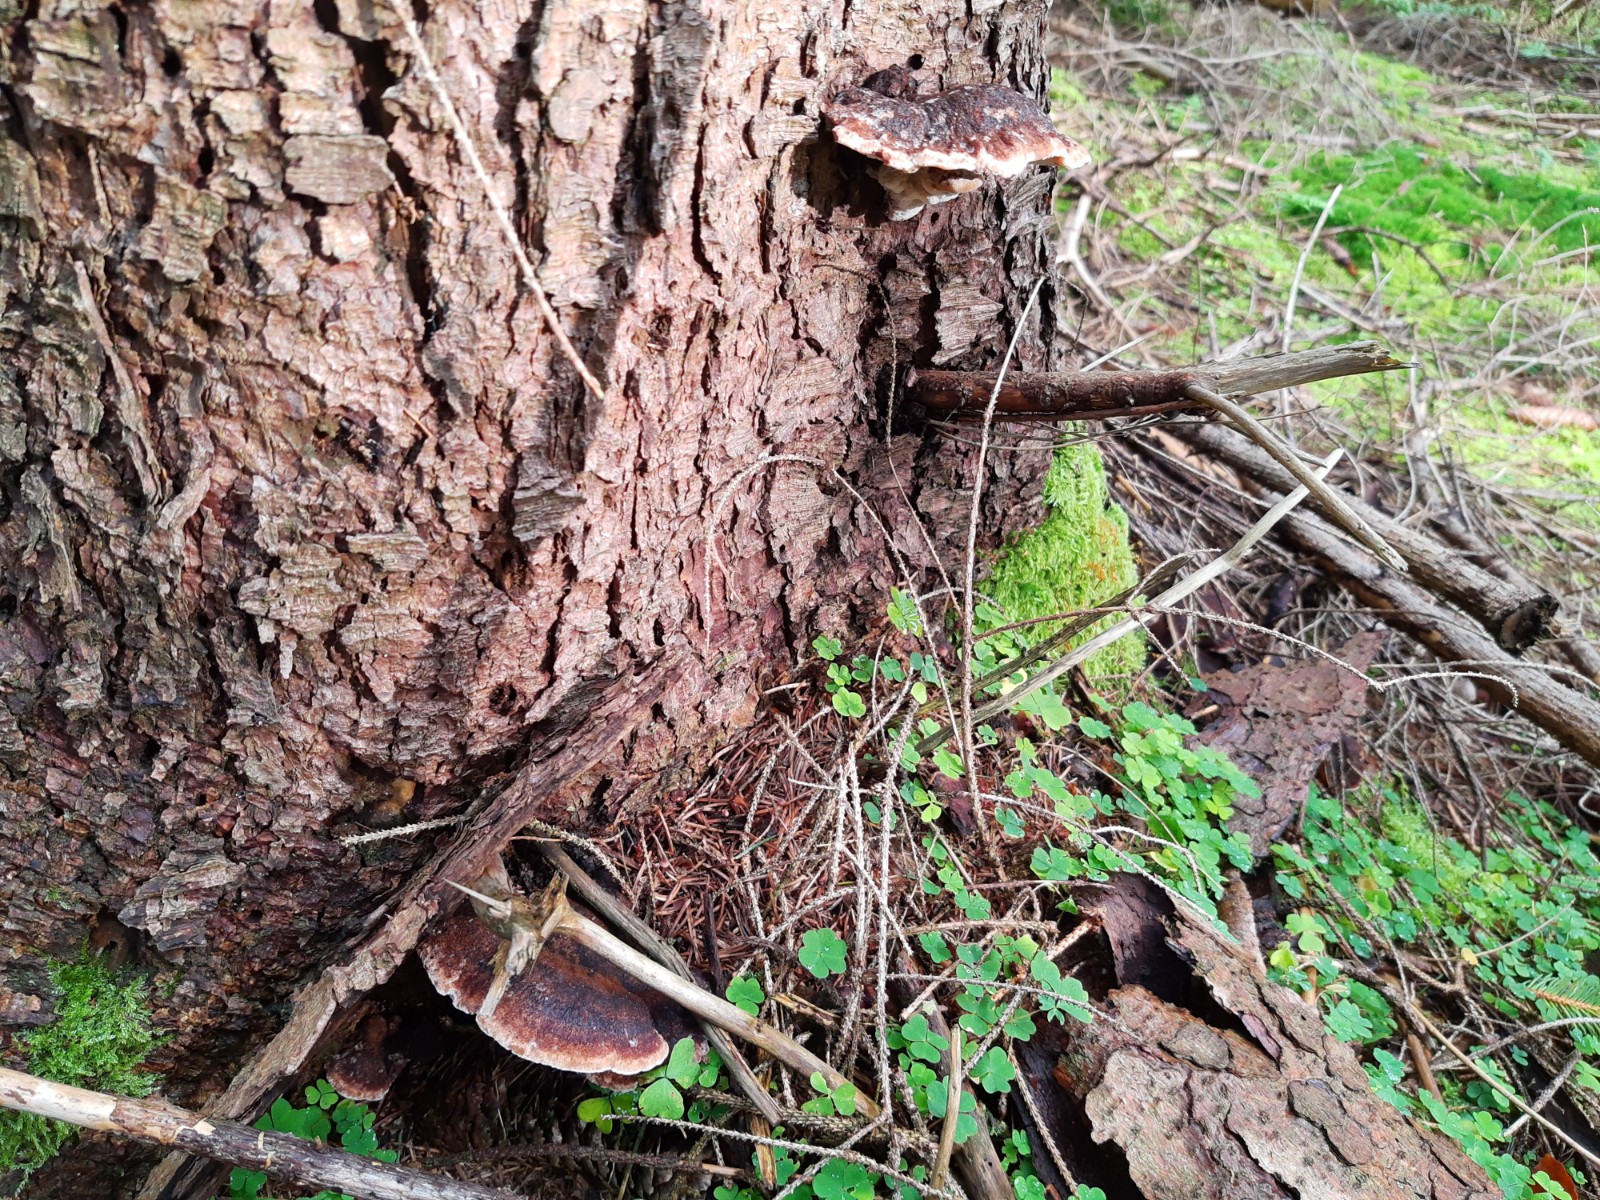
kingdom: Fungi
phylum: Basidiomycota
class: Agaricomycetes
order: Polyporales
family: Ischnodermataceae
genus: Ischnoderma
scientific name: Ischnoderma benzoinum
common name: gran-tjæreporesvamp
